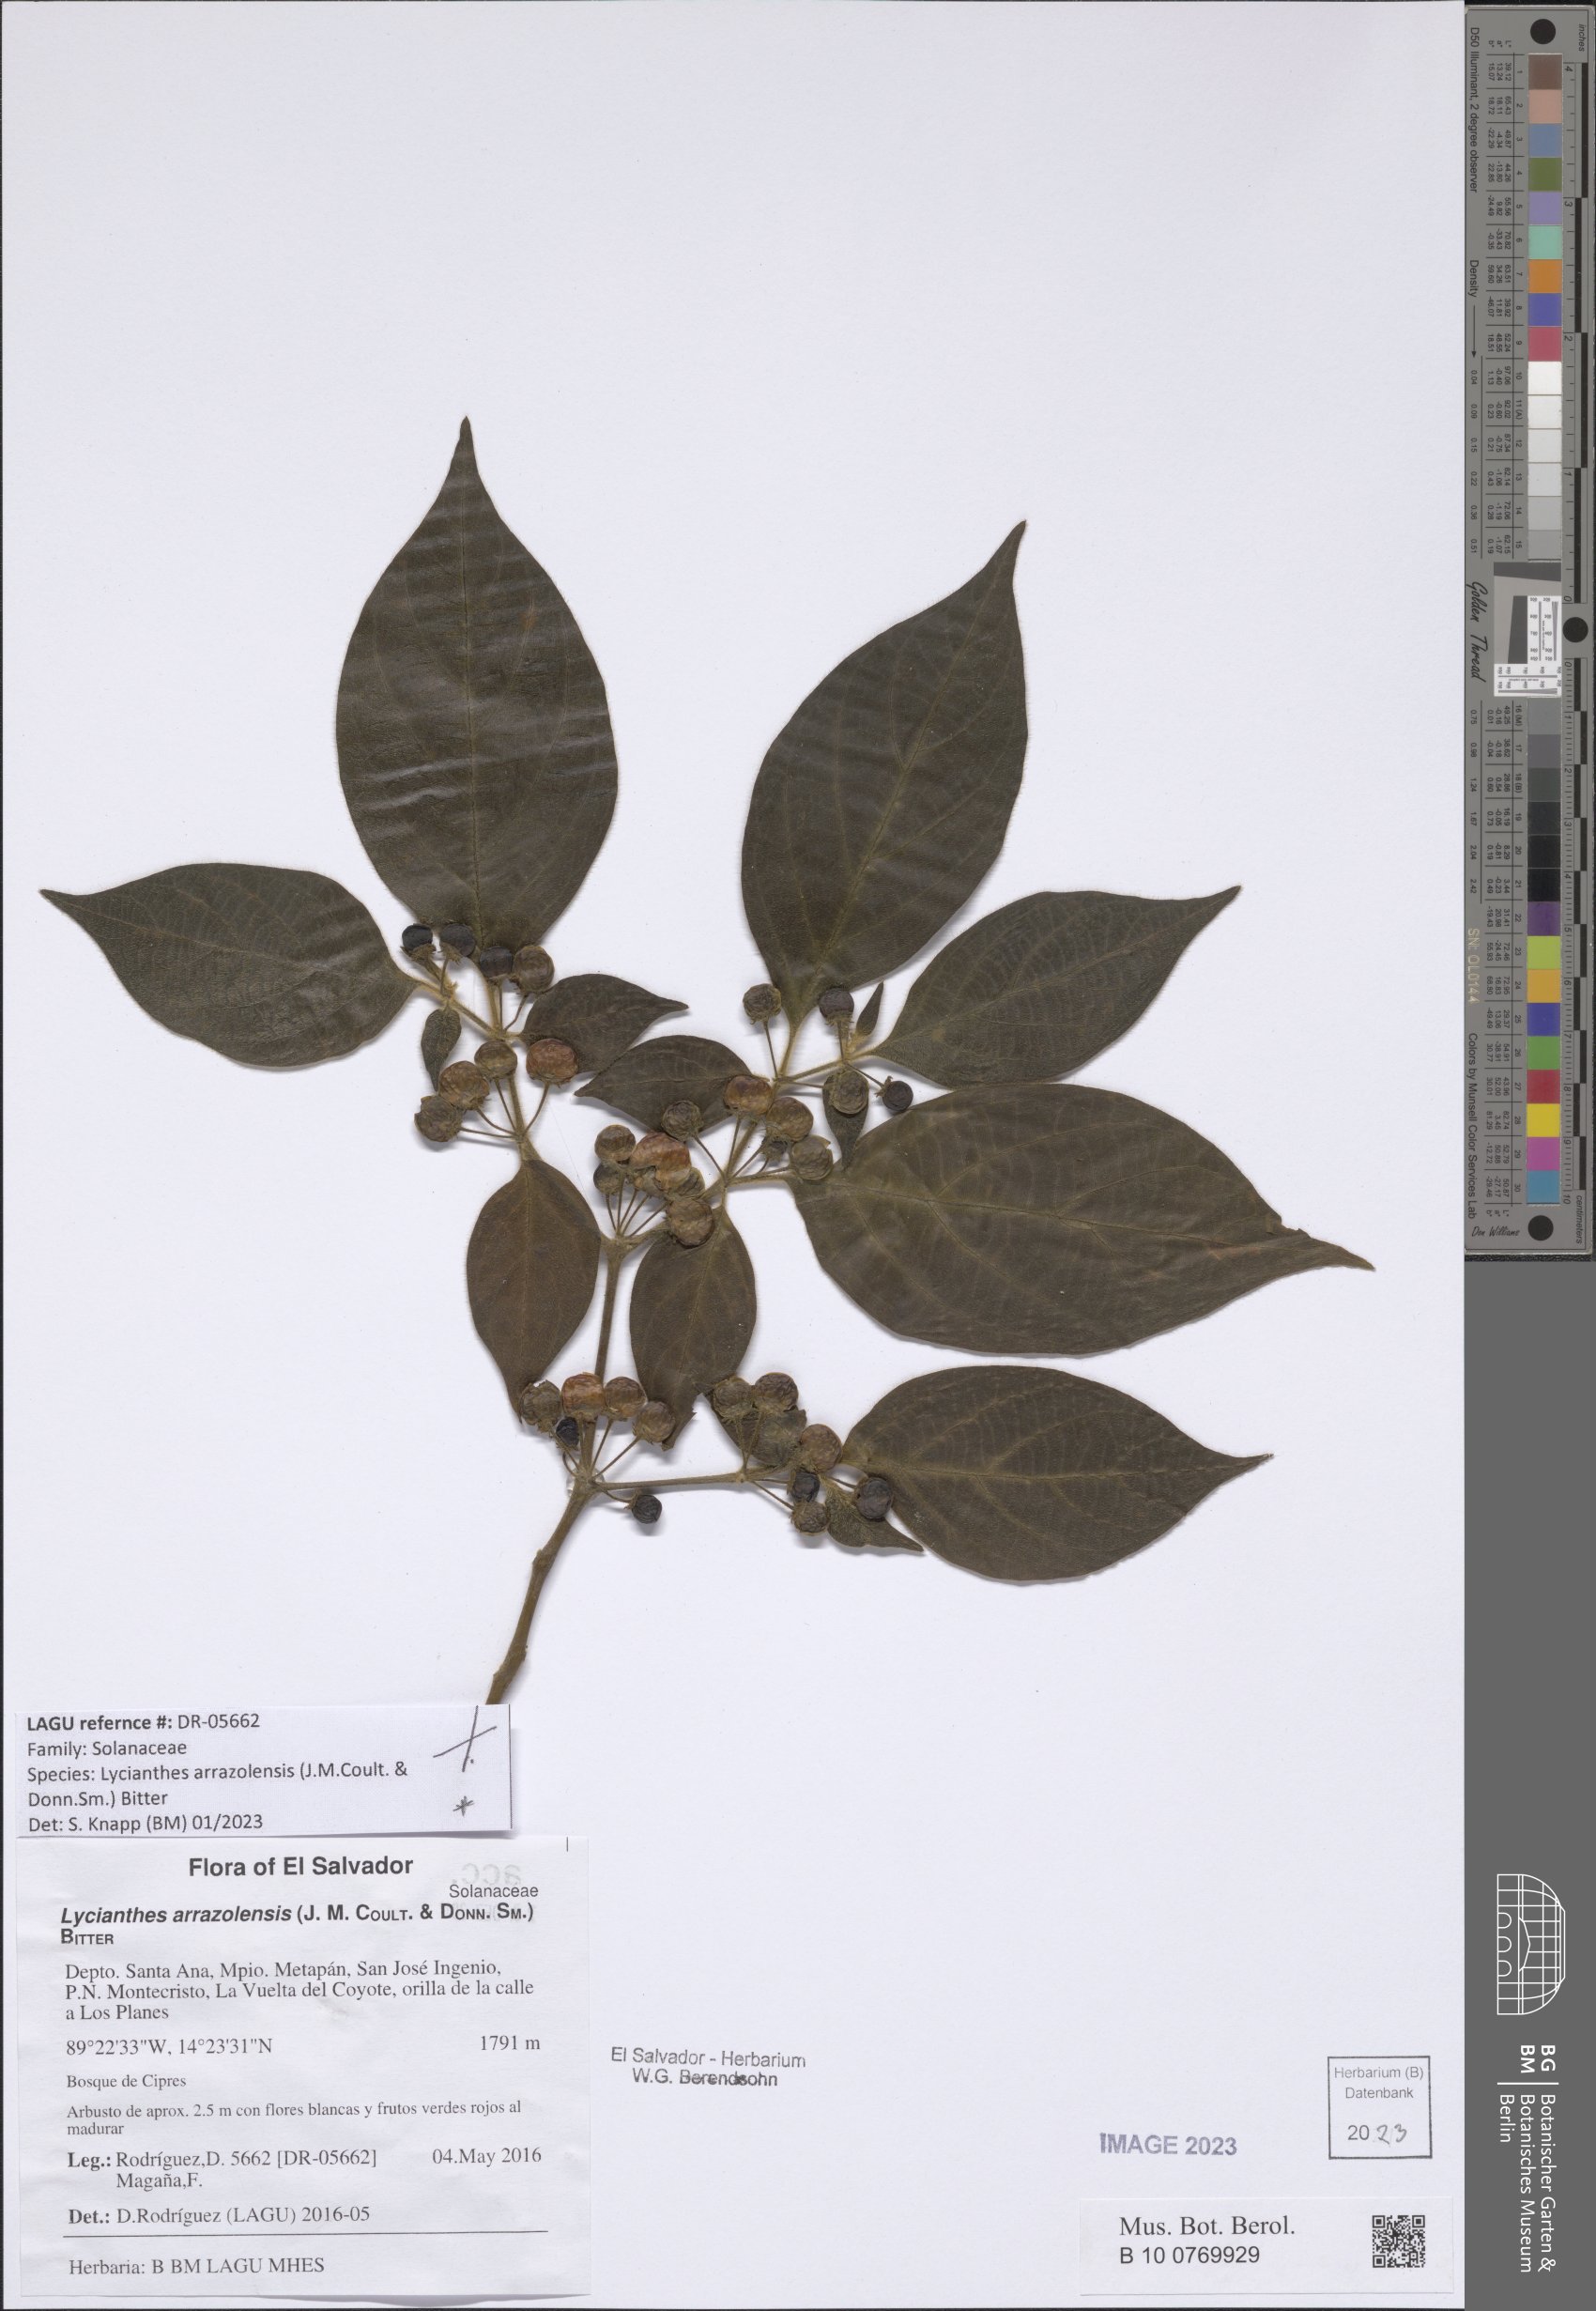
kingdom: Plantae
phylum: Tracheophyta
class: Magnoliopsida
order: Solanales
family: Solanaceae
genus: Lycianthes
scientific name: Lycianthes arrazolensis
